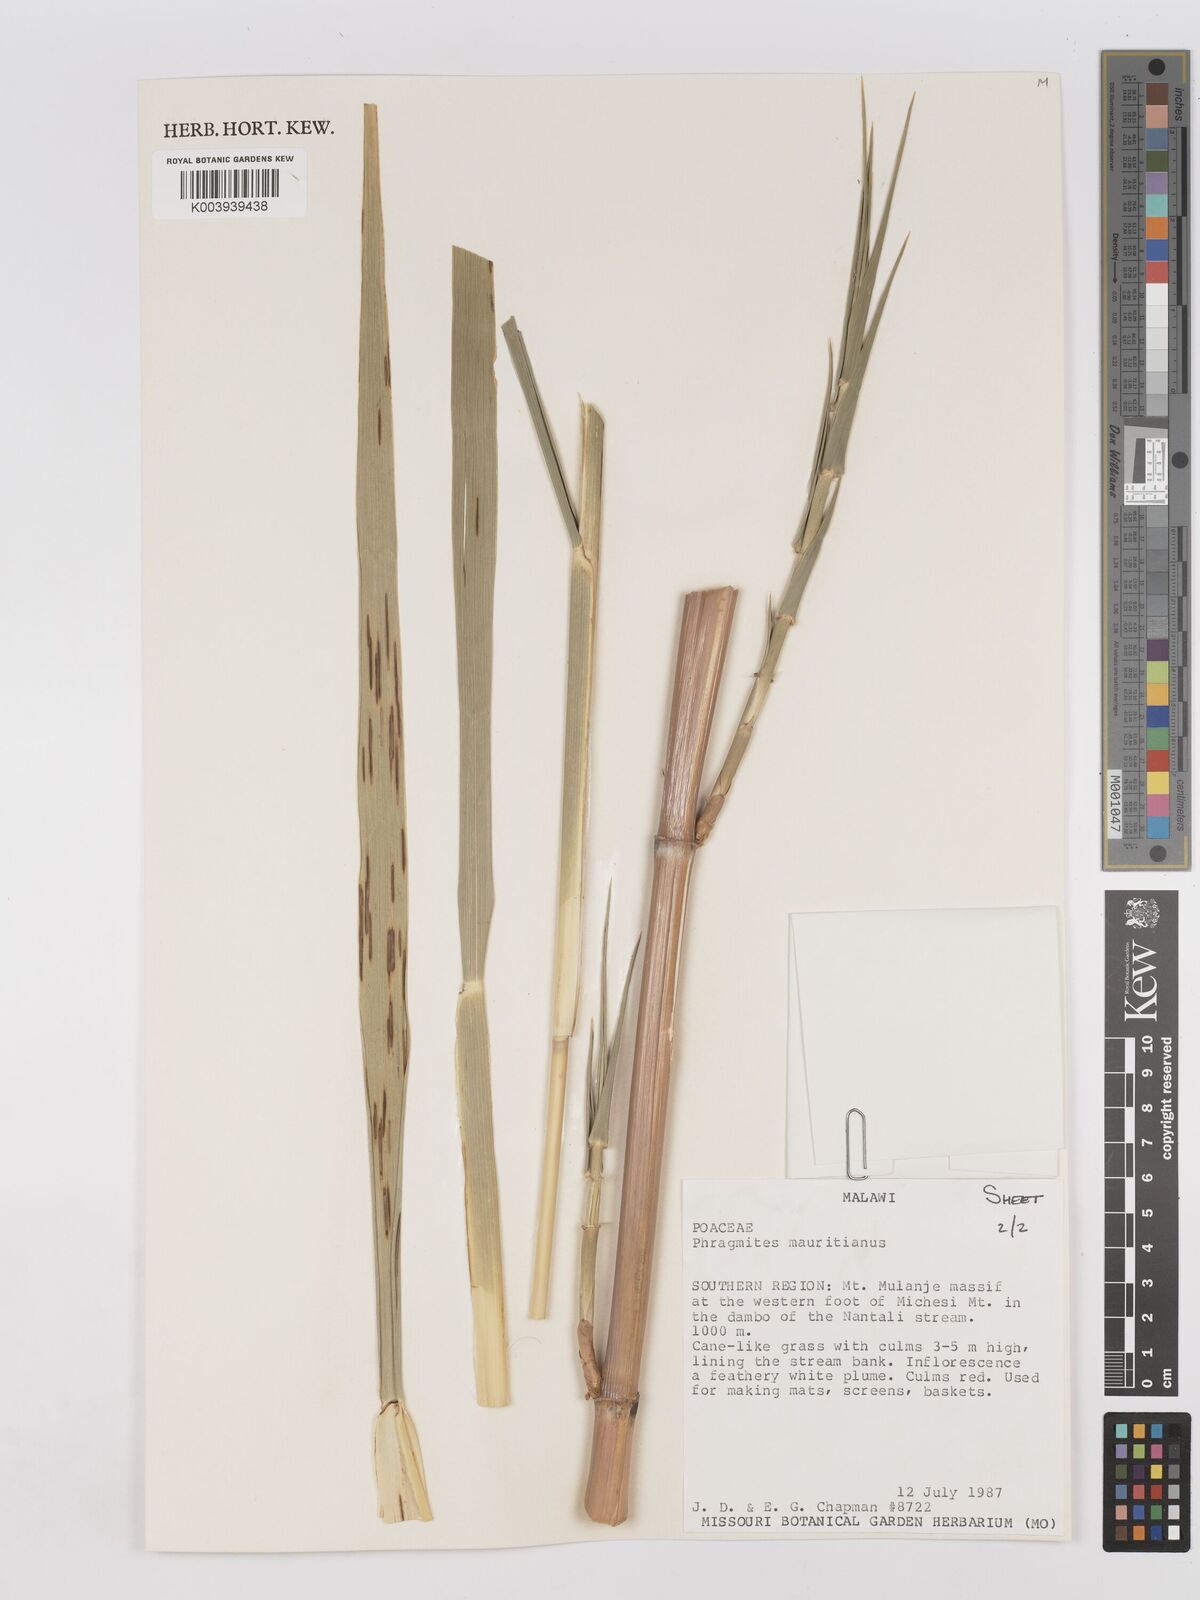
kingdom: Plantae
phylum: Tracheophyta
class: Liliopsida
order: Poales
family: Poaceae
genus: Phragmites
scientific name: Phragmites mauritianus
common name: Reed grass
